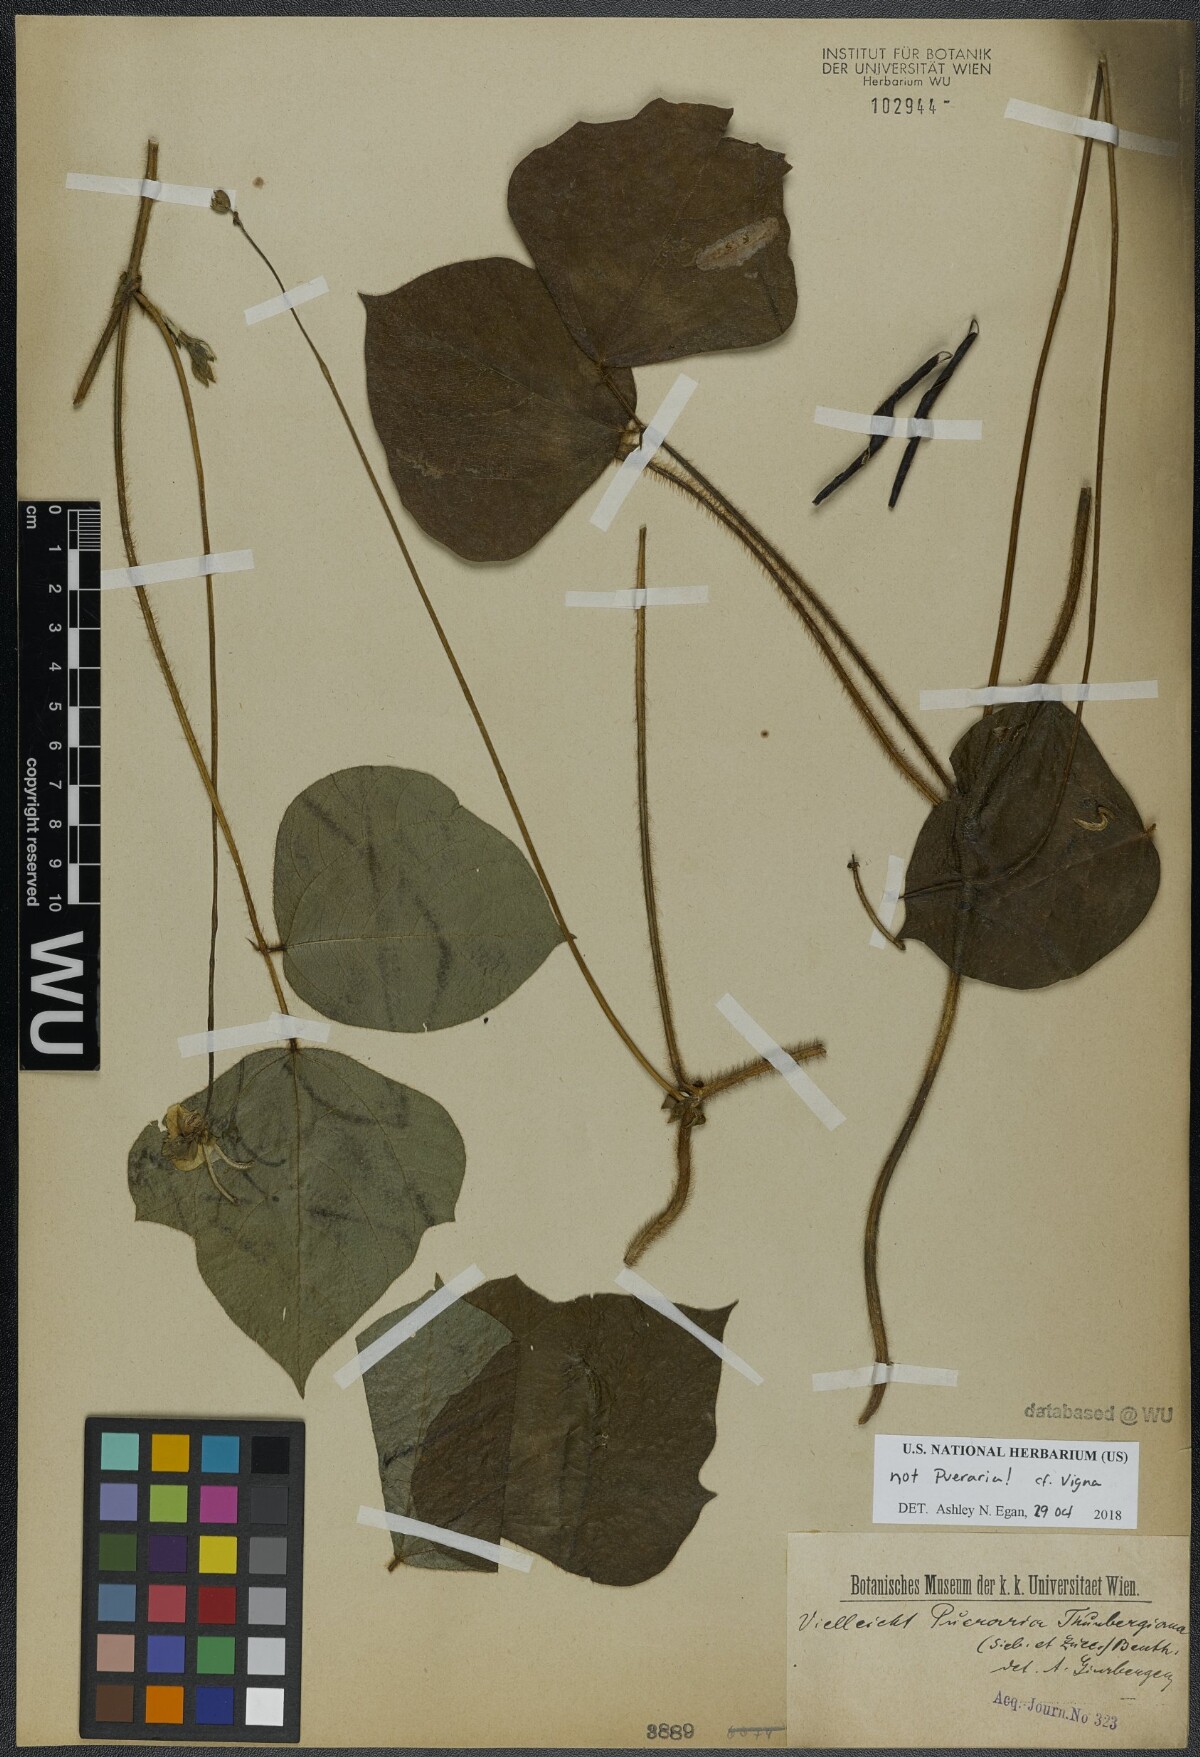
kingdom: Plantae
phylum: Tracheophyta
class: Magnoliopsida
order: Fabales
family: Fabaceae
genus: Vigna
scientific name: Vigna
